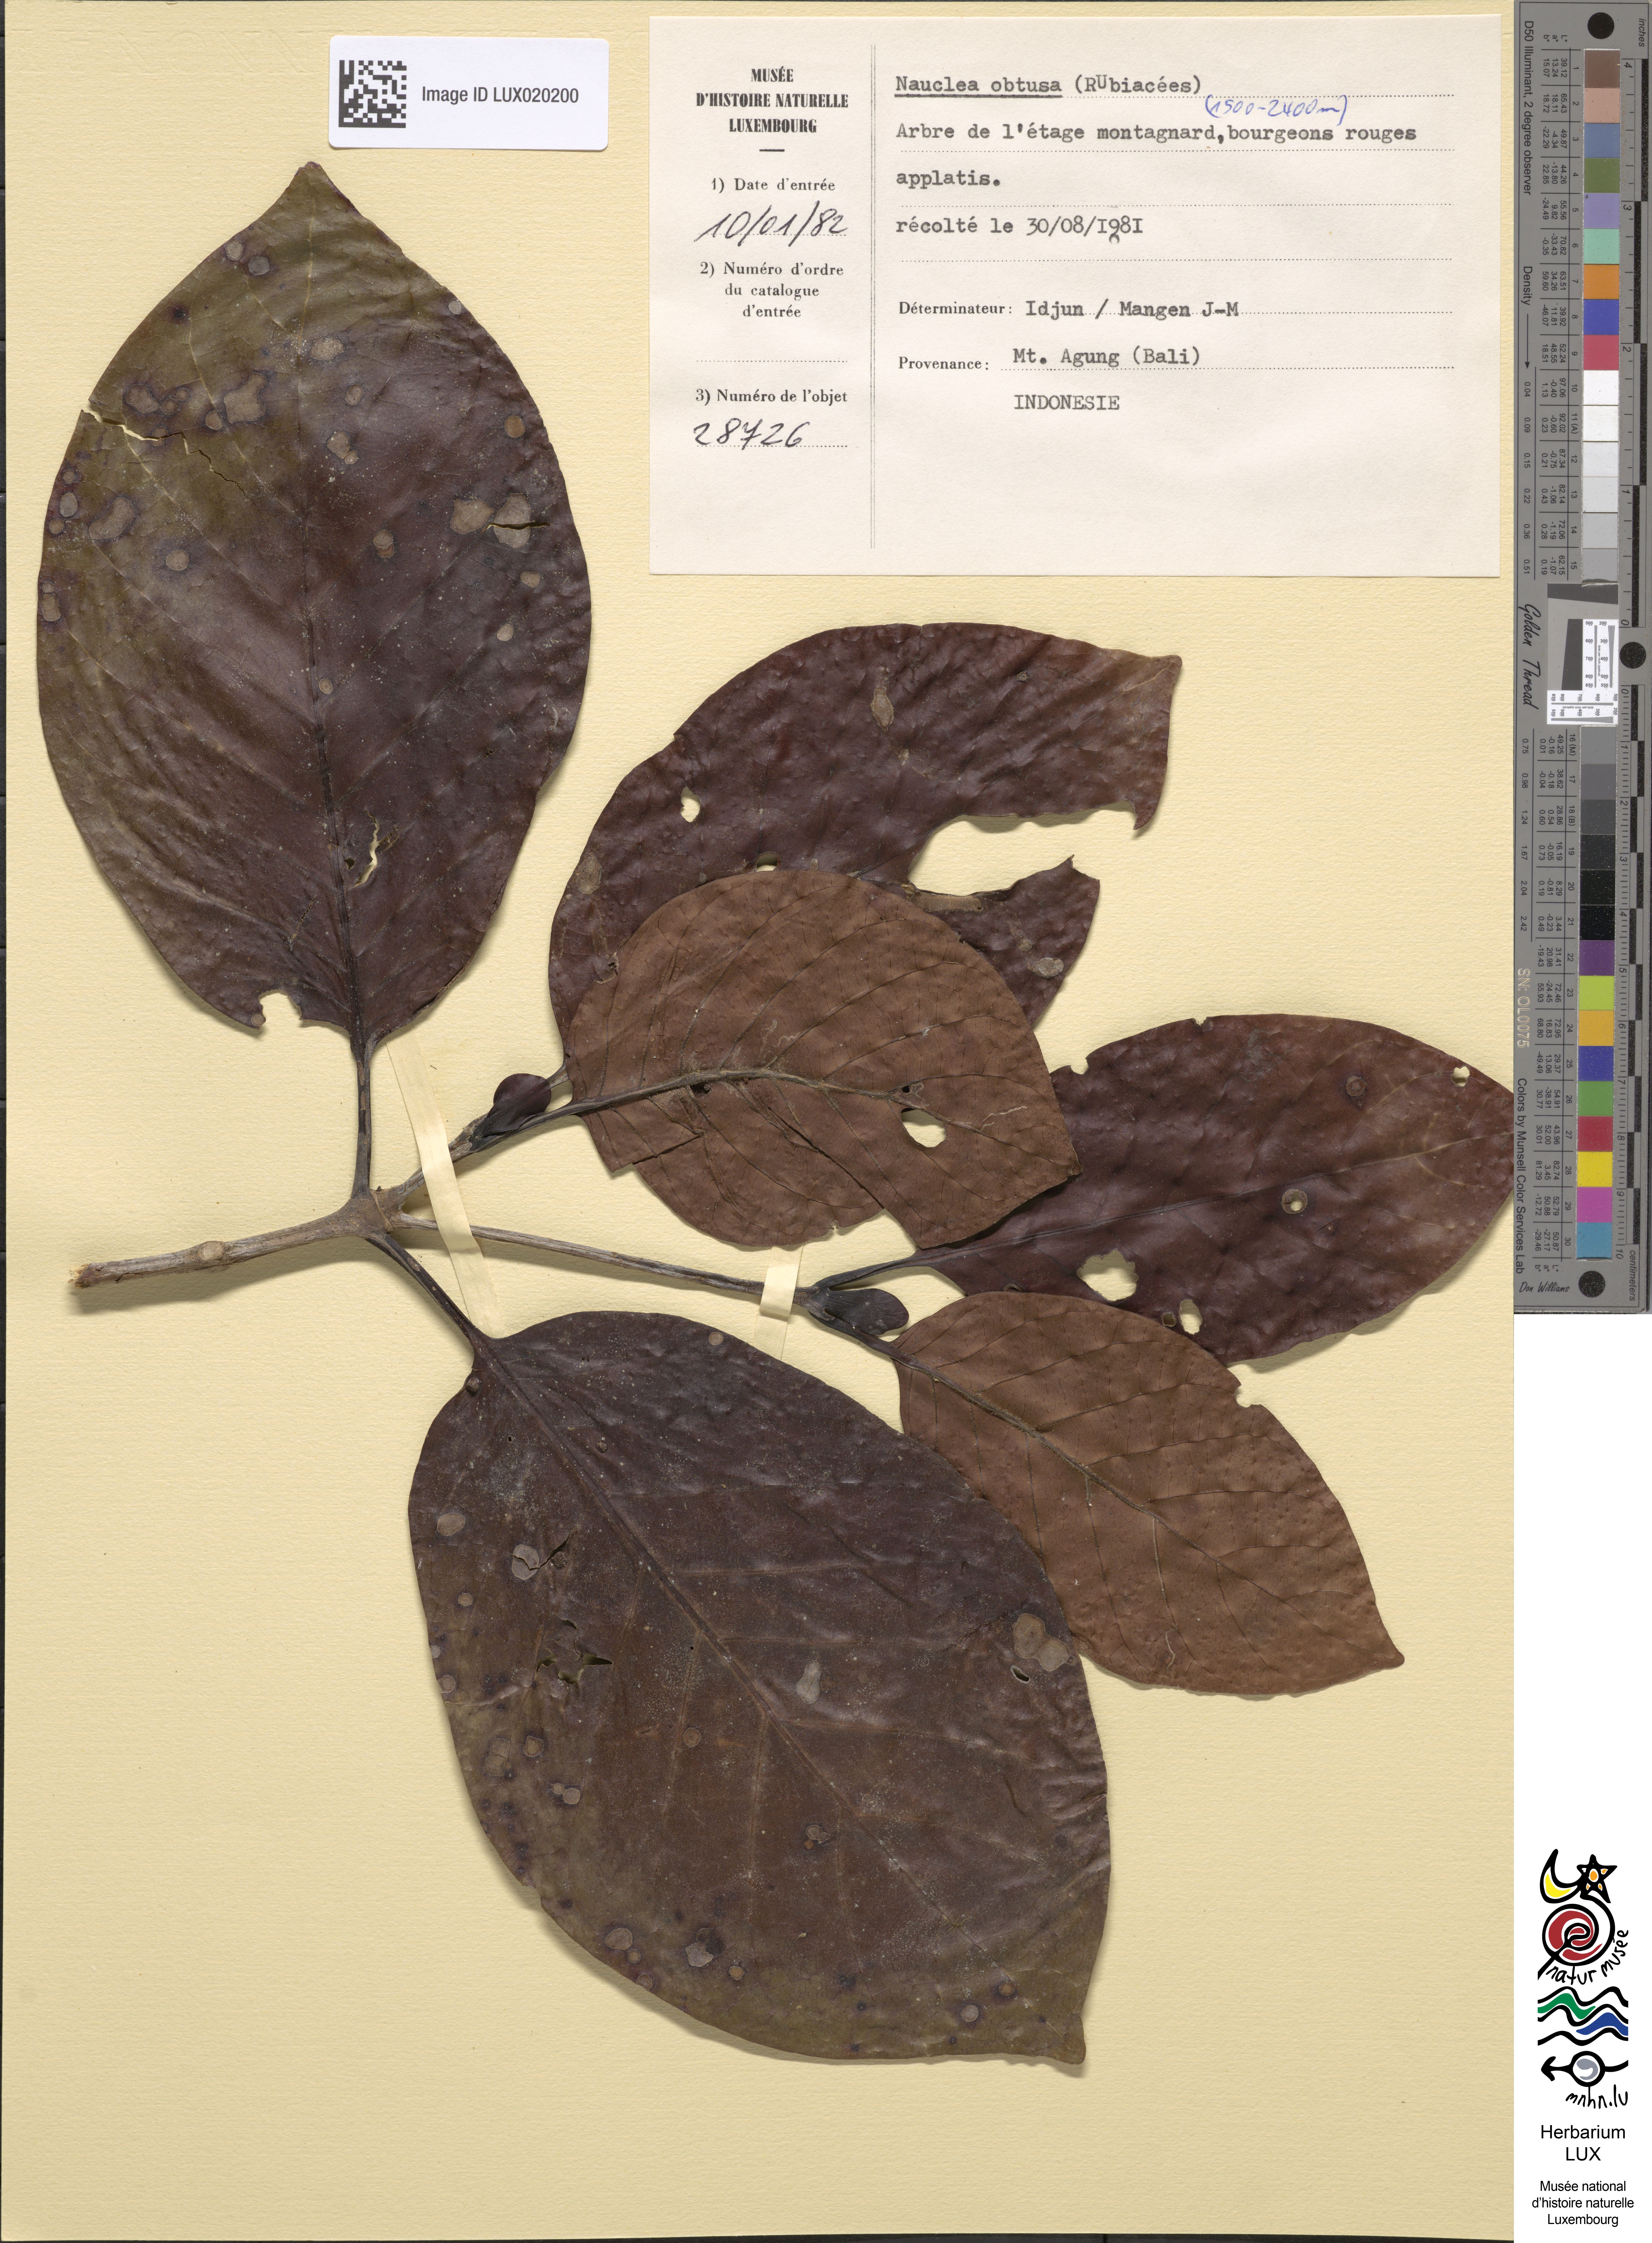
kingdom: Plantae
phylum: Tracheophyta
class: Magnoliopsida
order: Gentianales
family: Rubiaceae
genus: Neonauclea
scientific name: Neonauclea excelsa
